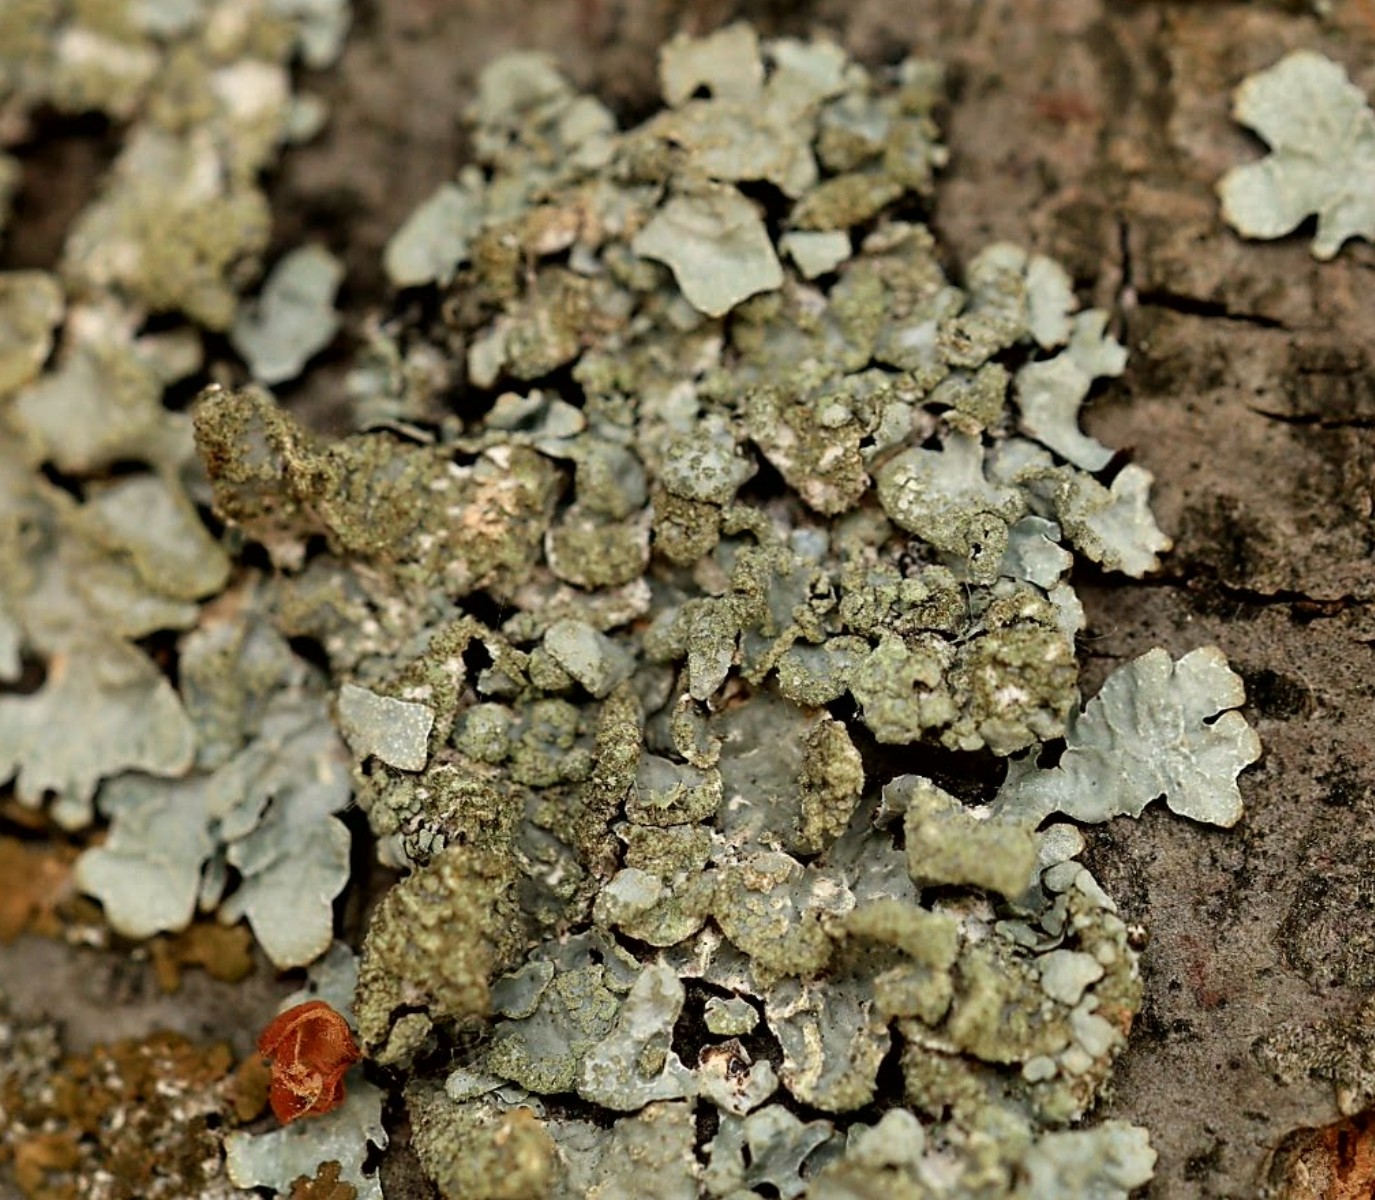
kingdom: Fungi
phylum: Ascomycota
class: Lecanoromycetes
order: Lecanorales
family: Parmeliaceae
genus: Parmelia
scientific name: Parmelia sulcata
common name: rynket skållav
